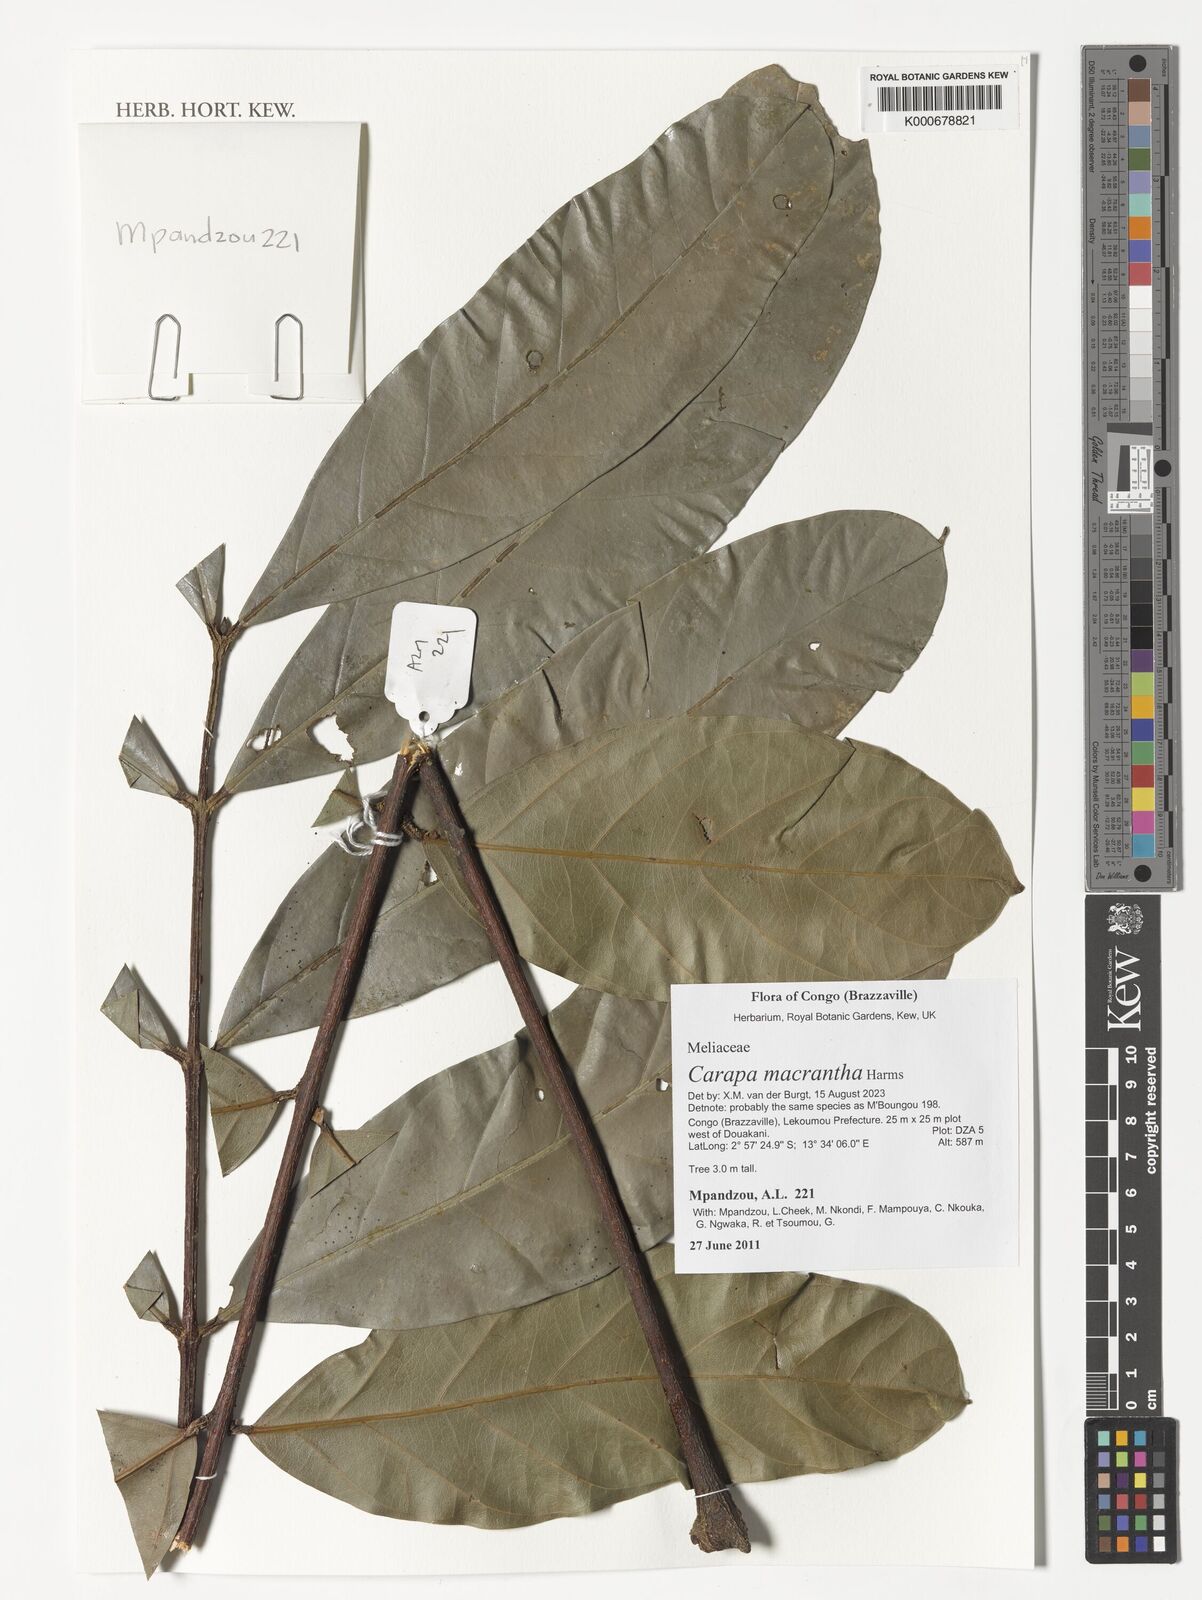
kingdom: Plantae
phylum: Tracheophyta
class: Magnoliopsida
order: Sapindales
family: Meliaceae
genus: Carapa
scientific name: Carapa macrantha
